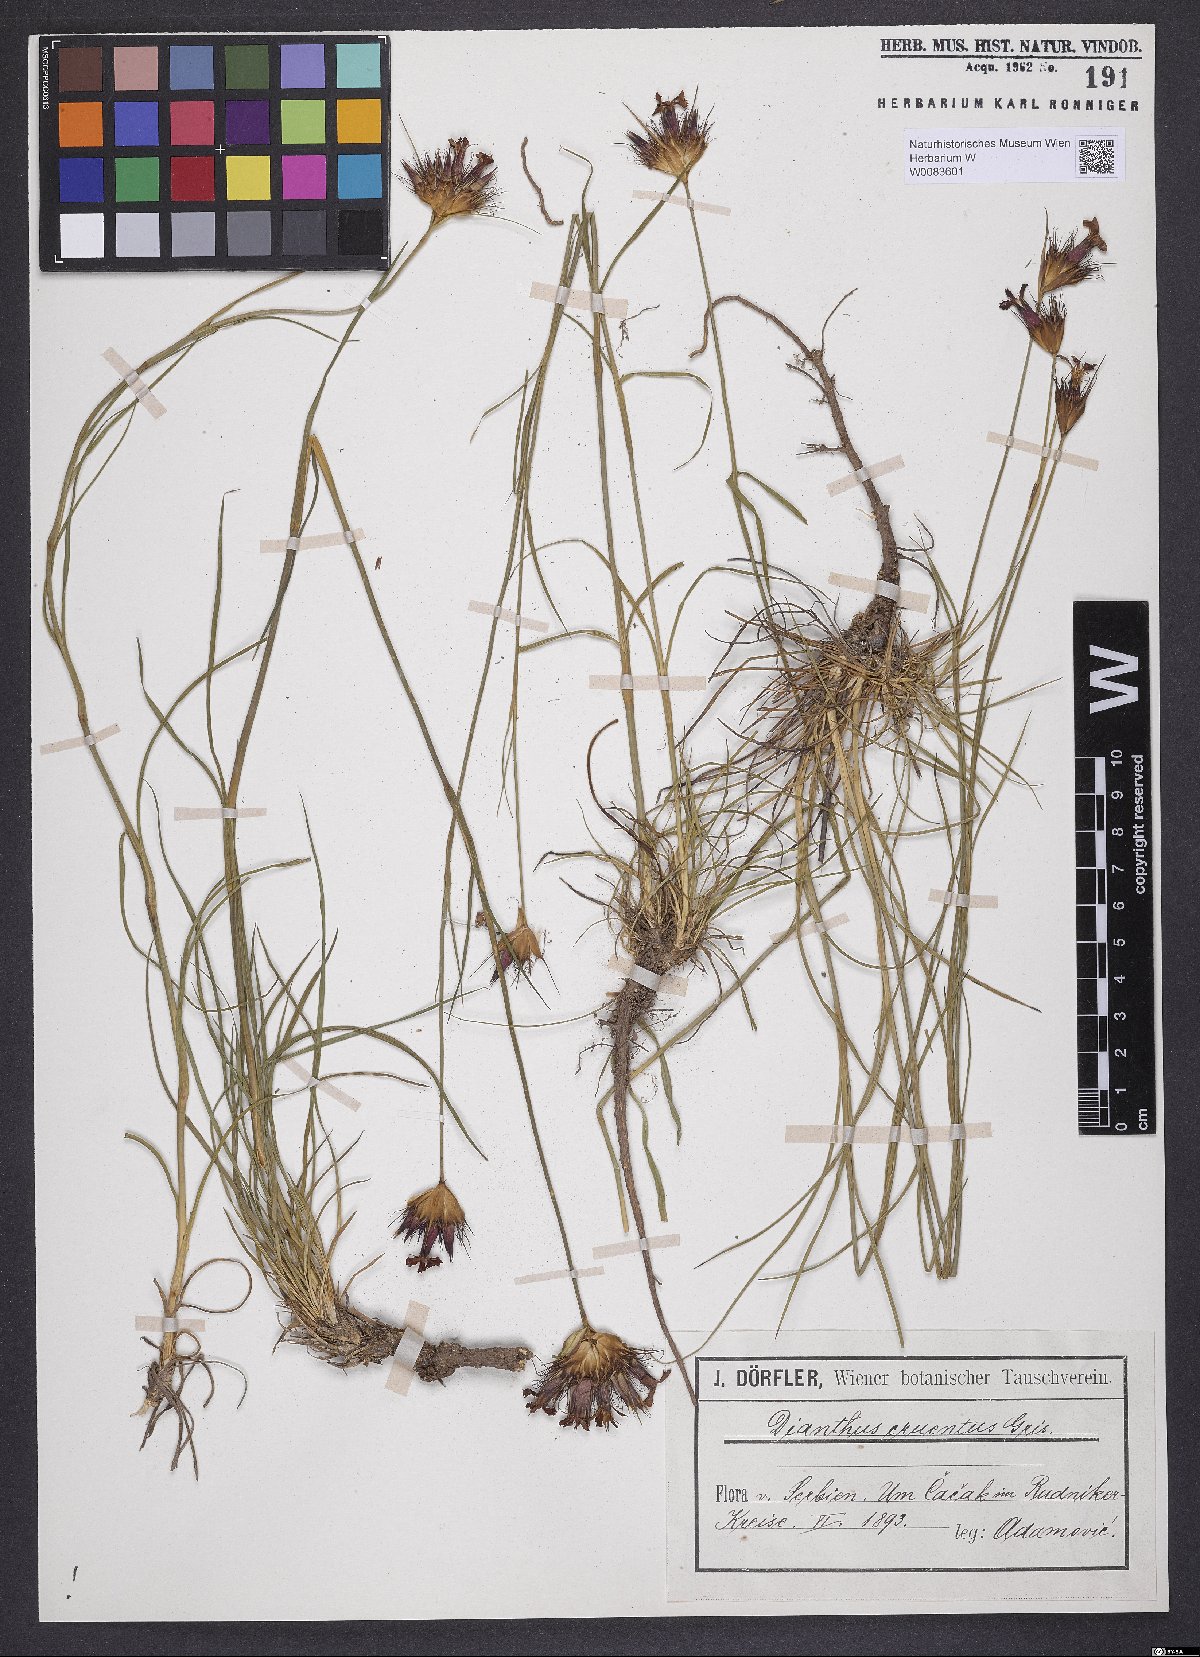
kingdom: Plantae
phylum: Tracheophyta
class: Magnoliopsida
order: Caryophyllales
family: Caryophyllaceae
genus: Dianthus
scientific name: Dianthus cruentus
